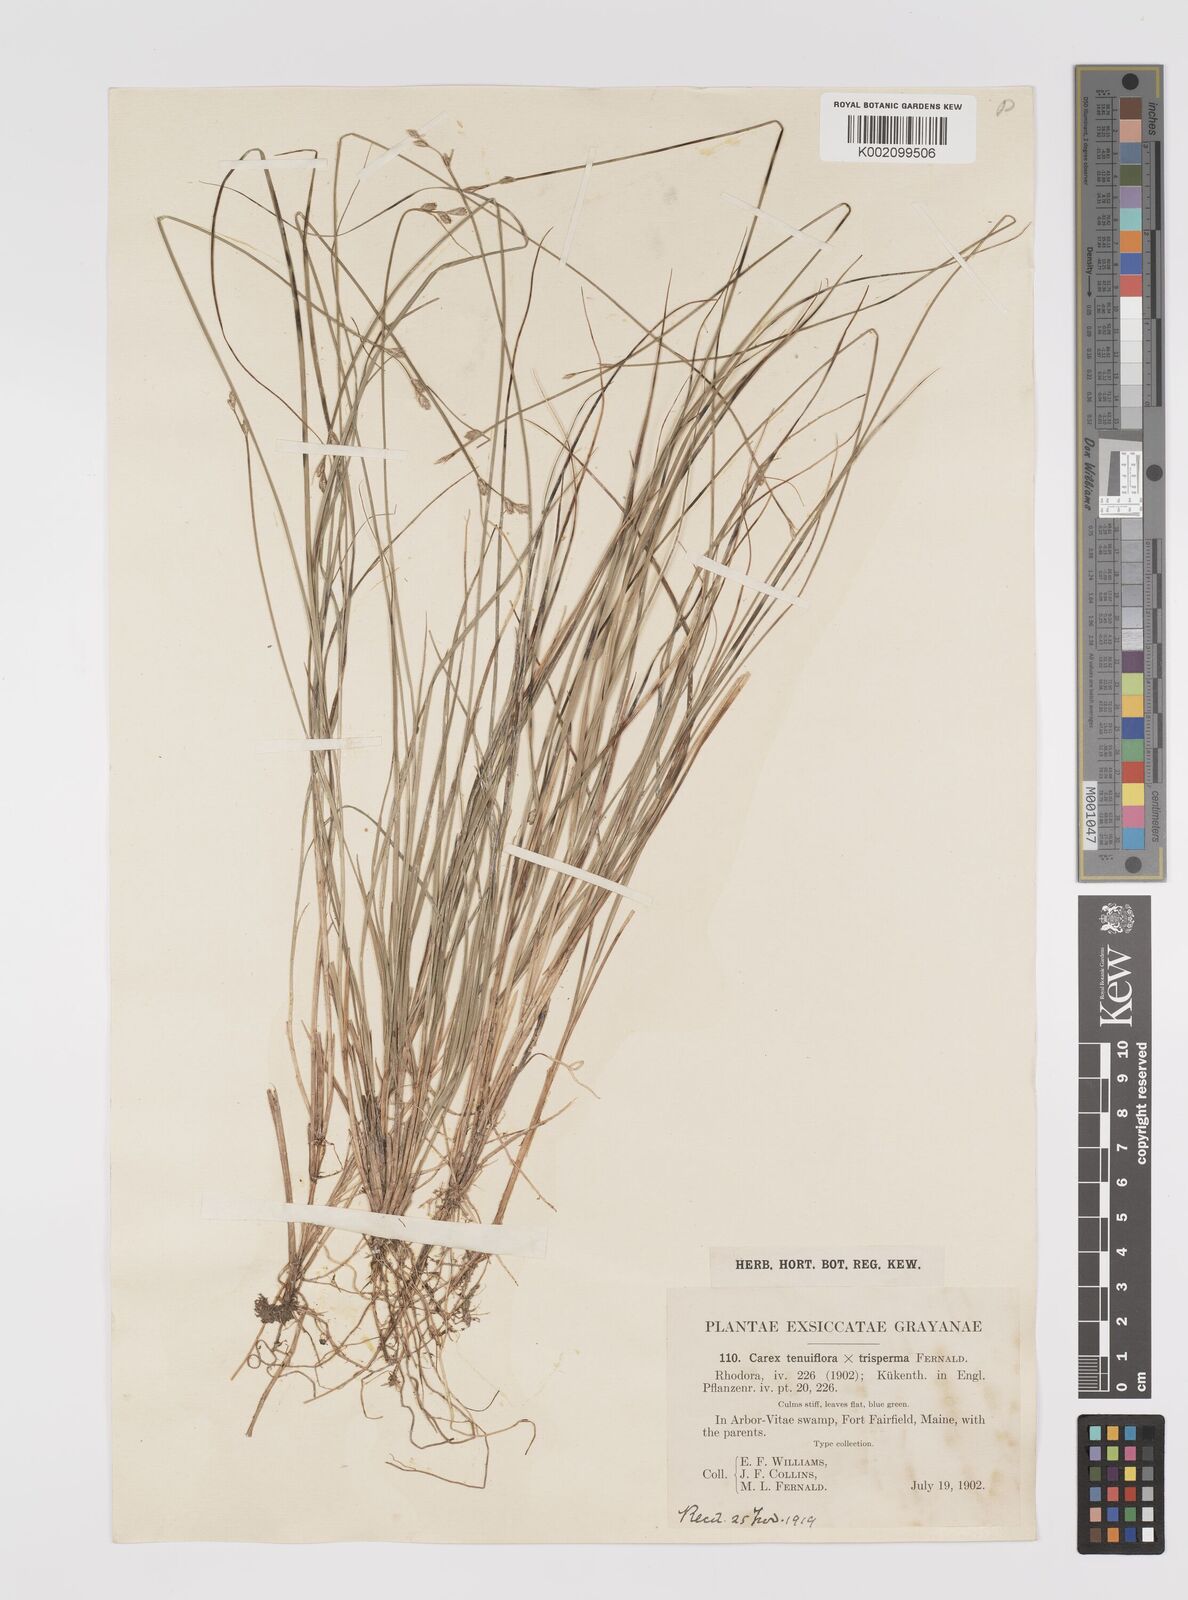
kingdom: Plantae
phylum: Tracheophyta
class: Liliopsida
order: Poales
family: Cyperaceae
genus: Carex
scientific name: Carex tenuiflora
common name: Sparse-flowered sedge
